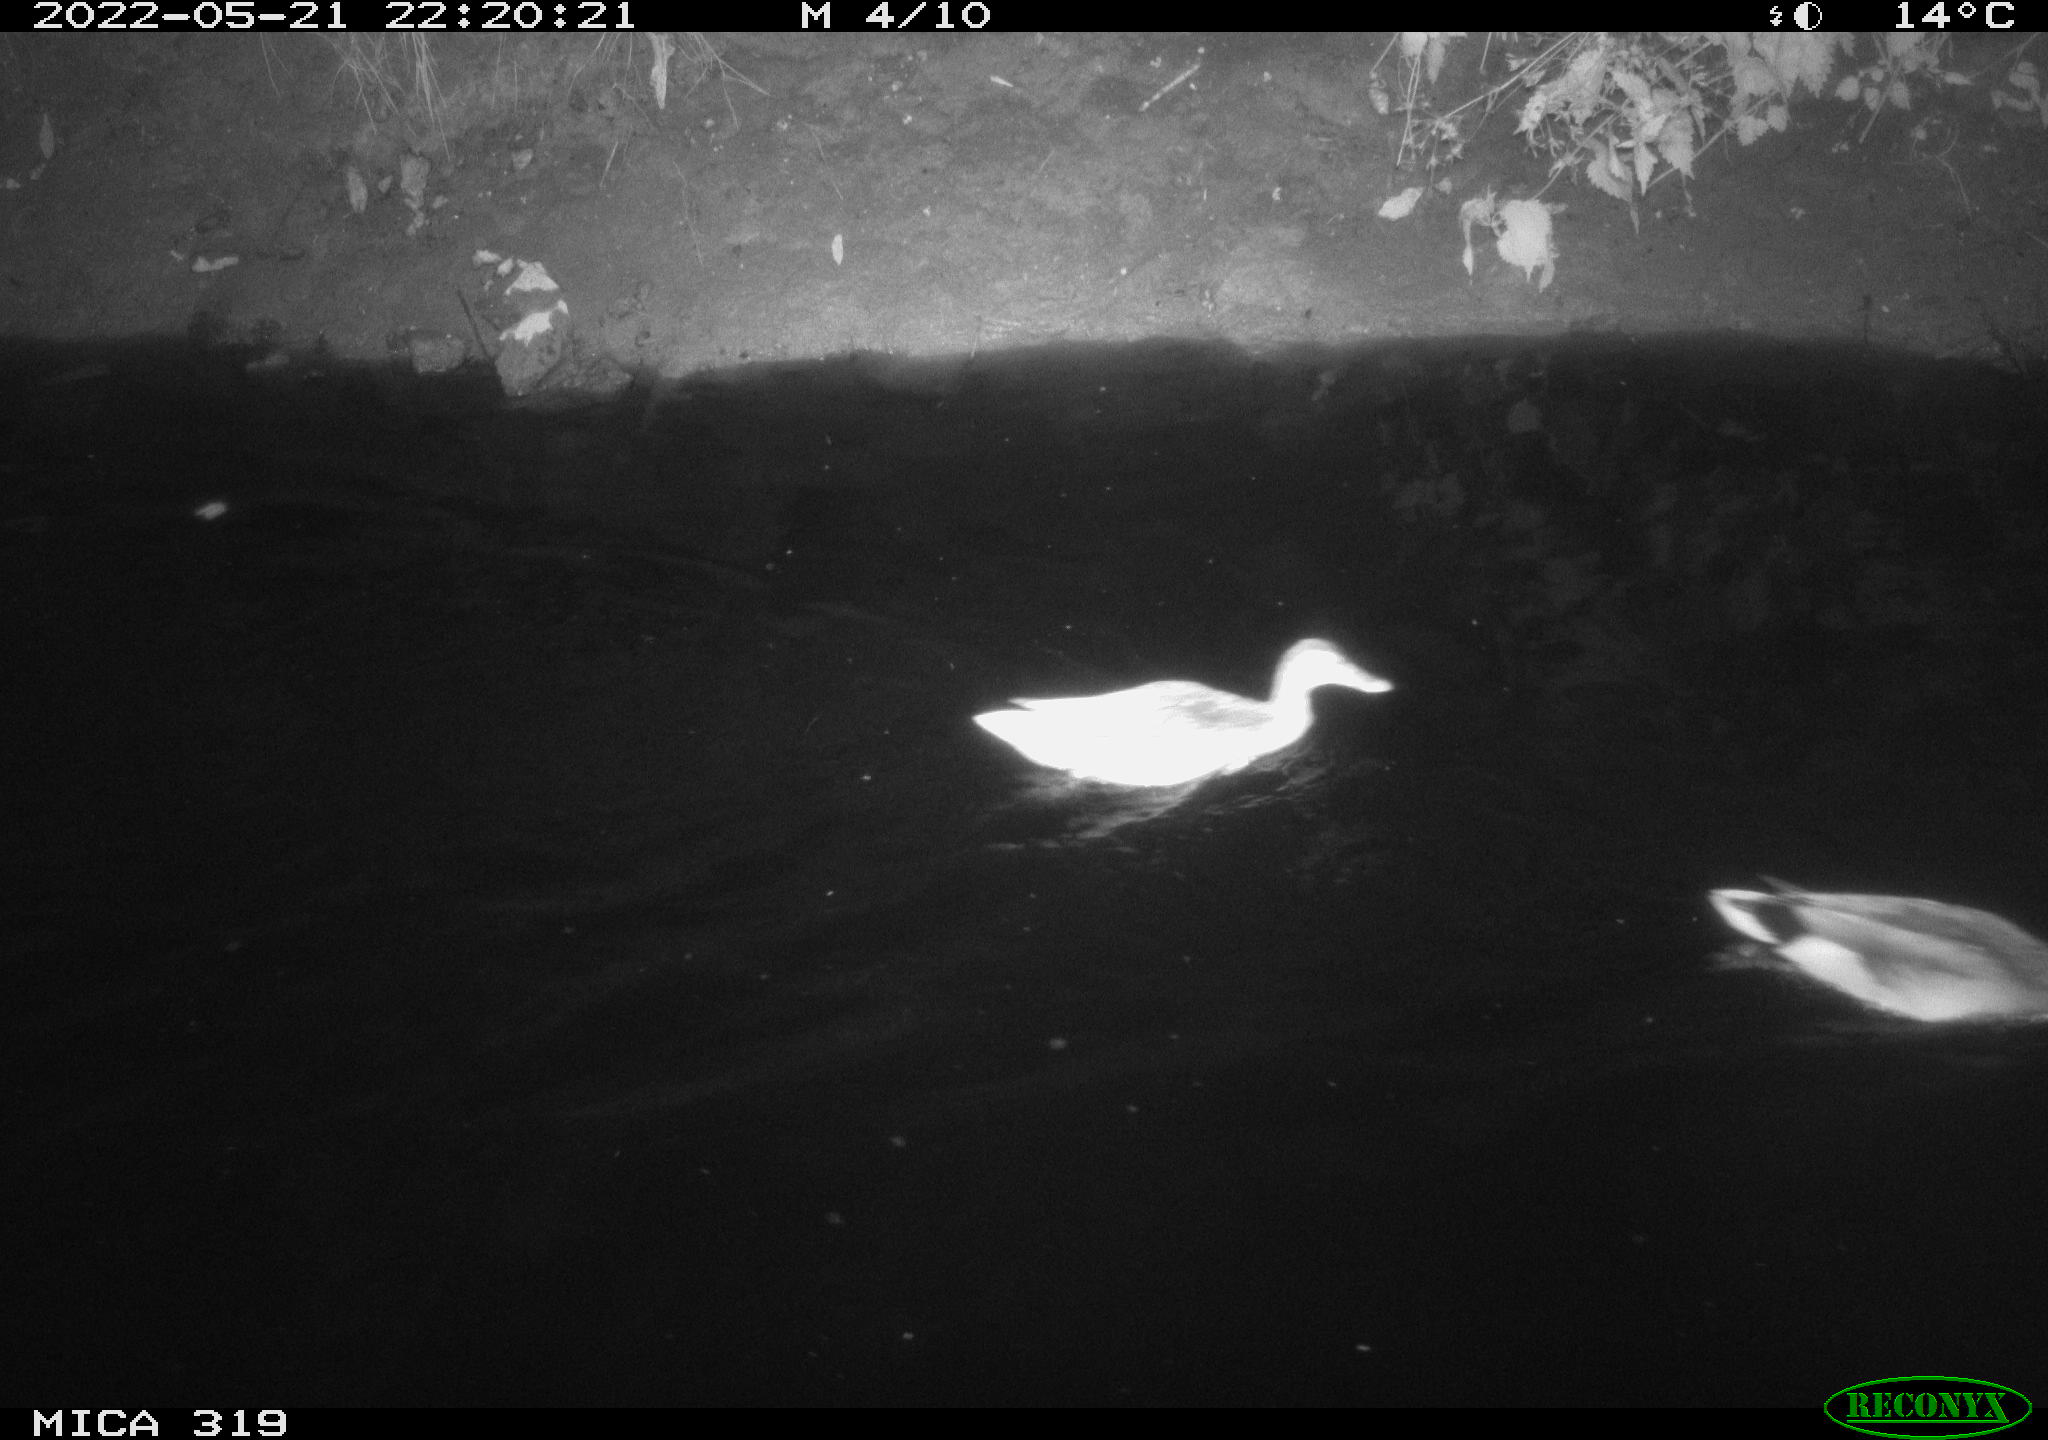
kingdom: Animalia
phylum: Chordata
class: Aves
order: Anseriformes
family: Anatidae
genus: Anas
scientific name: Anas
